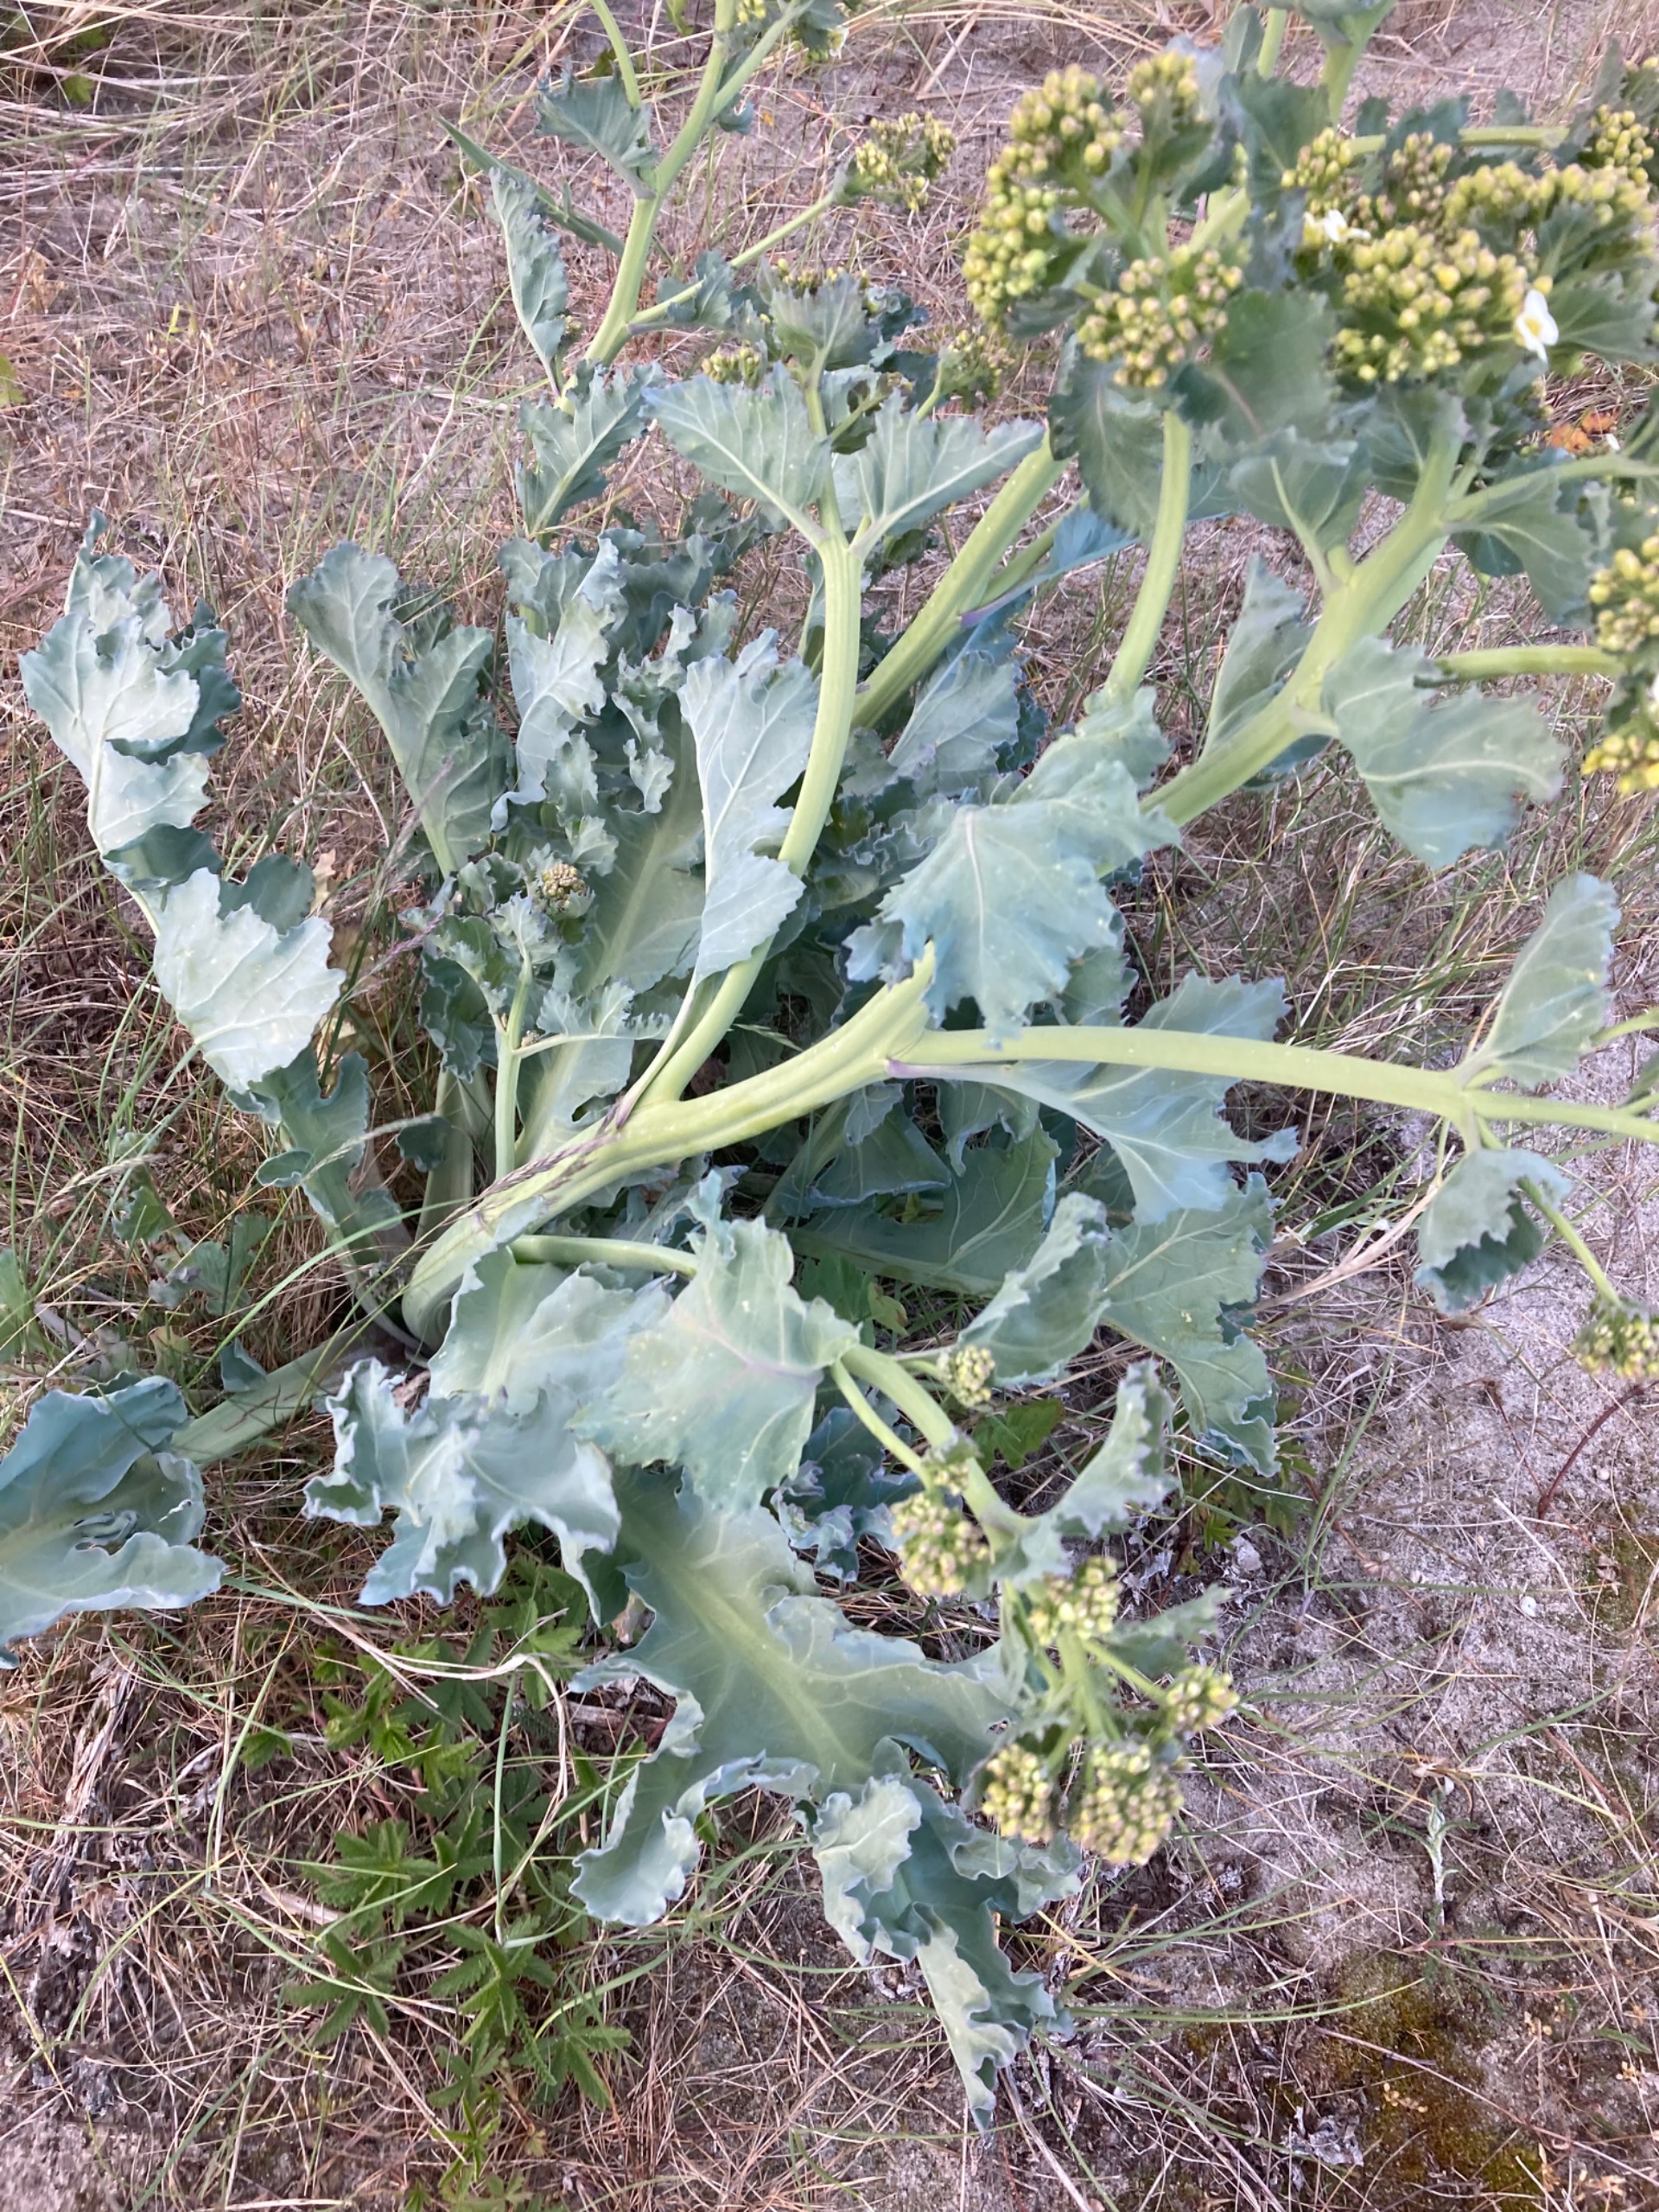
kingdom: Plantae
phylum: Tracheophyta
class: Magnoliopsida
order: Brassicales
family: Brassicaceae
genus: Crambe
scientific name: Crambe maritima
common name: Strandkål
